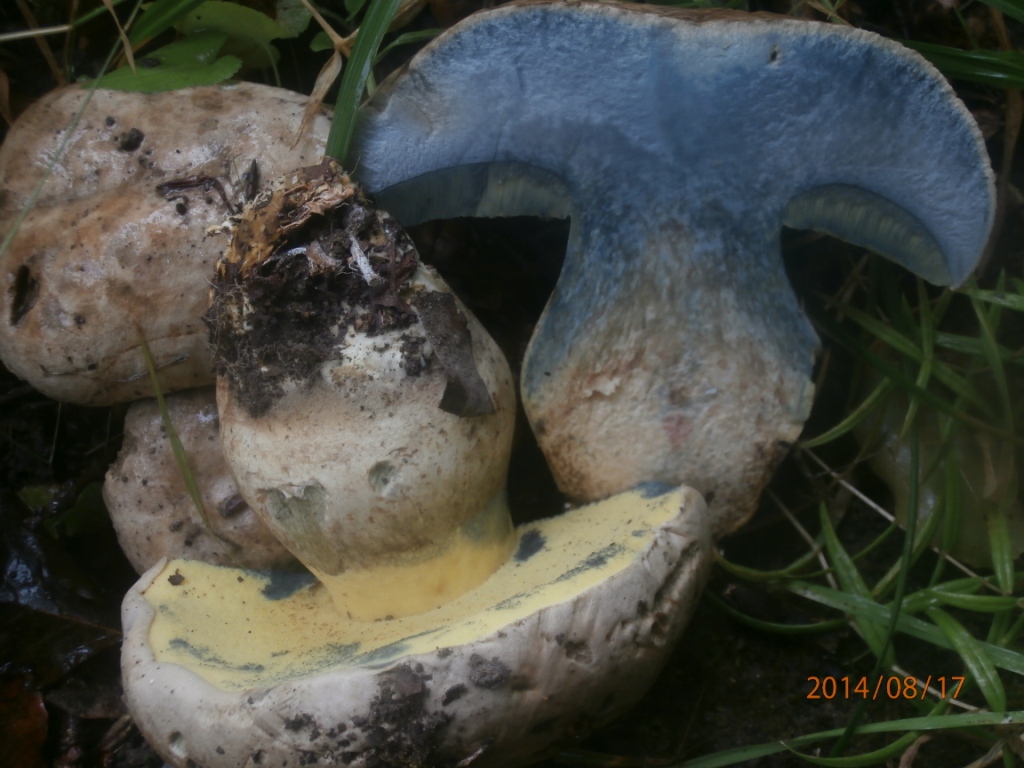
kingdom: Fungi
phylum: Basidiomycota
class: Agaricomycetes
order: Boletales
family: Boletaceae
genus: Caloboletus
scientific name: Caloboletus radicans
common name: rod-rørhat
